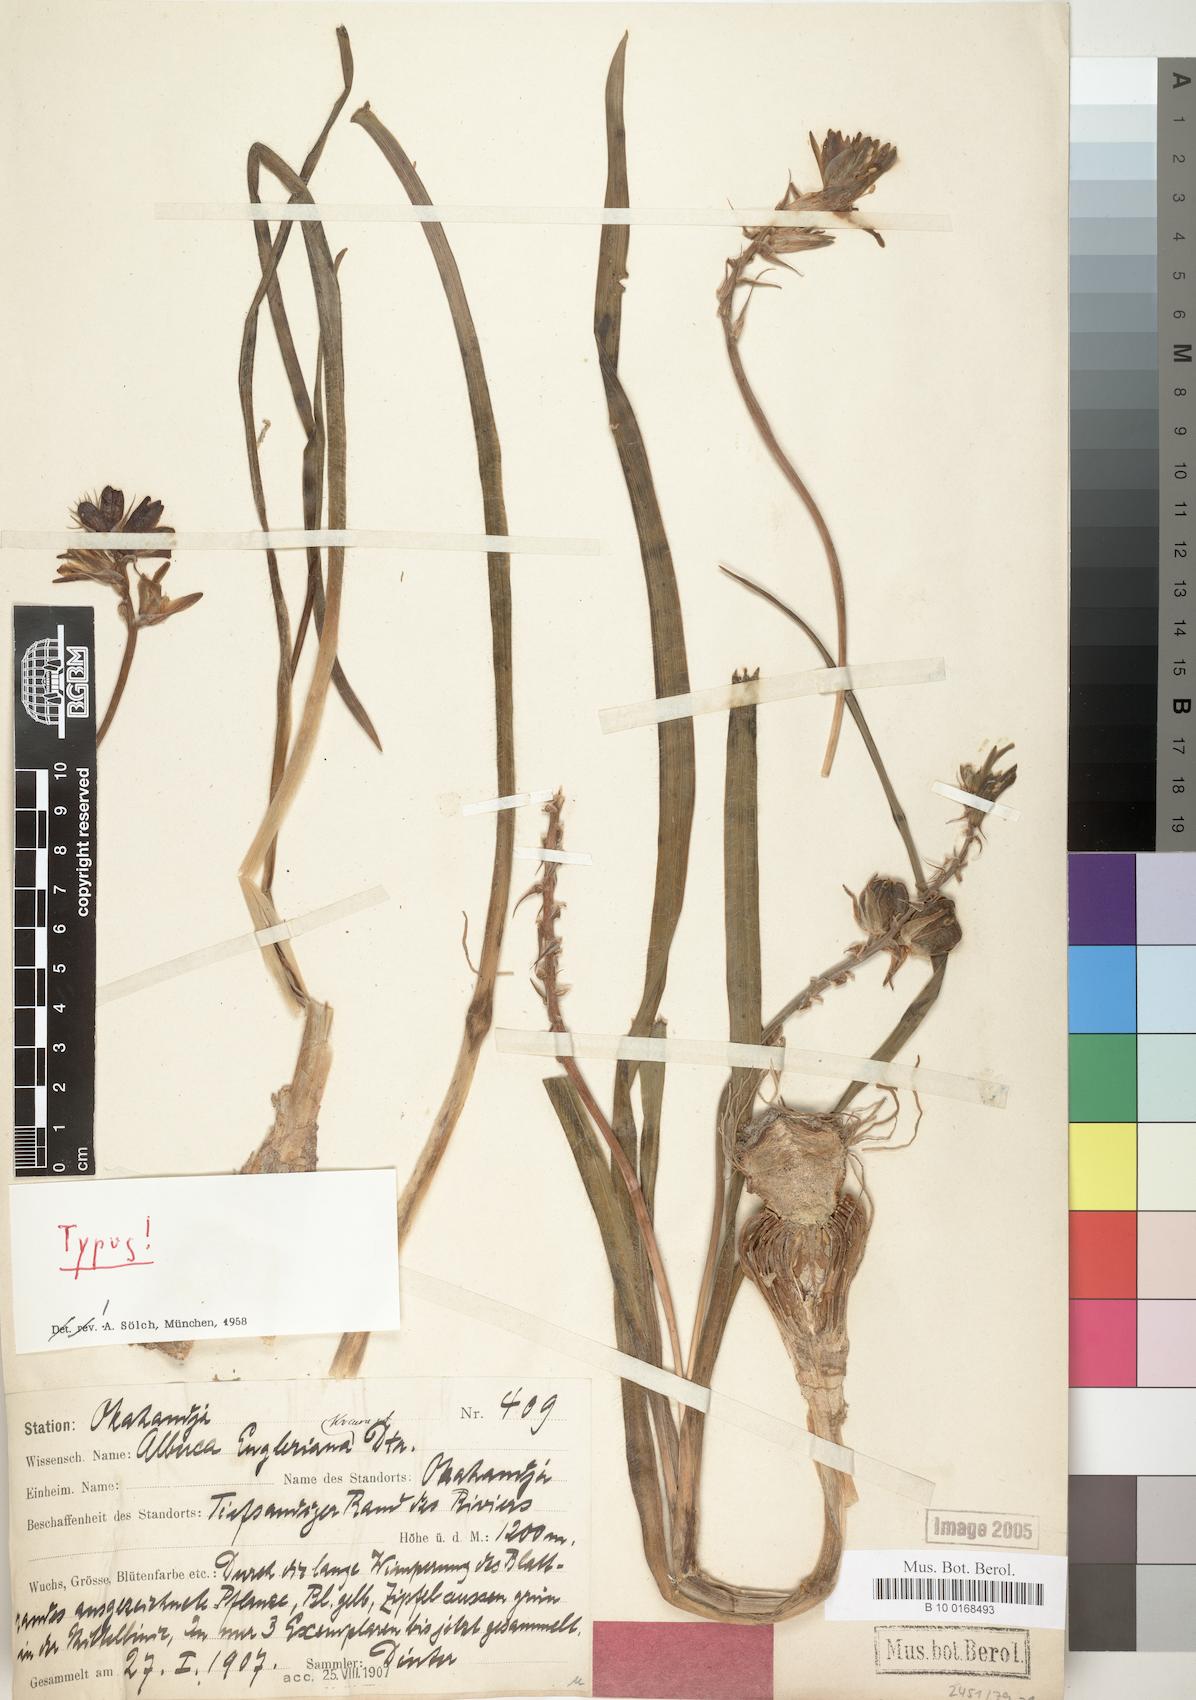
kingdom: Plantae
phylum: Tracheophyta
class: Liliopsida
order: Asparagales
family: Asparagaceae
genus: Albuca
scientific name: Albuca engleriana
